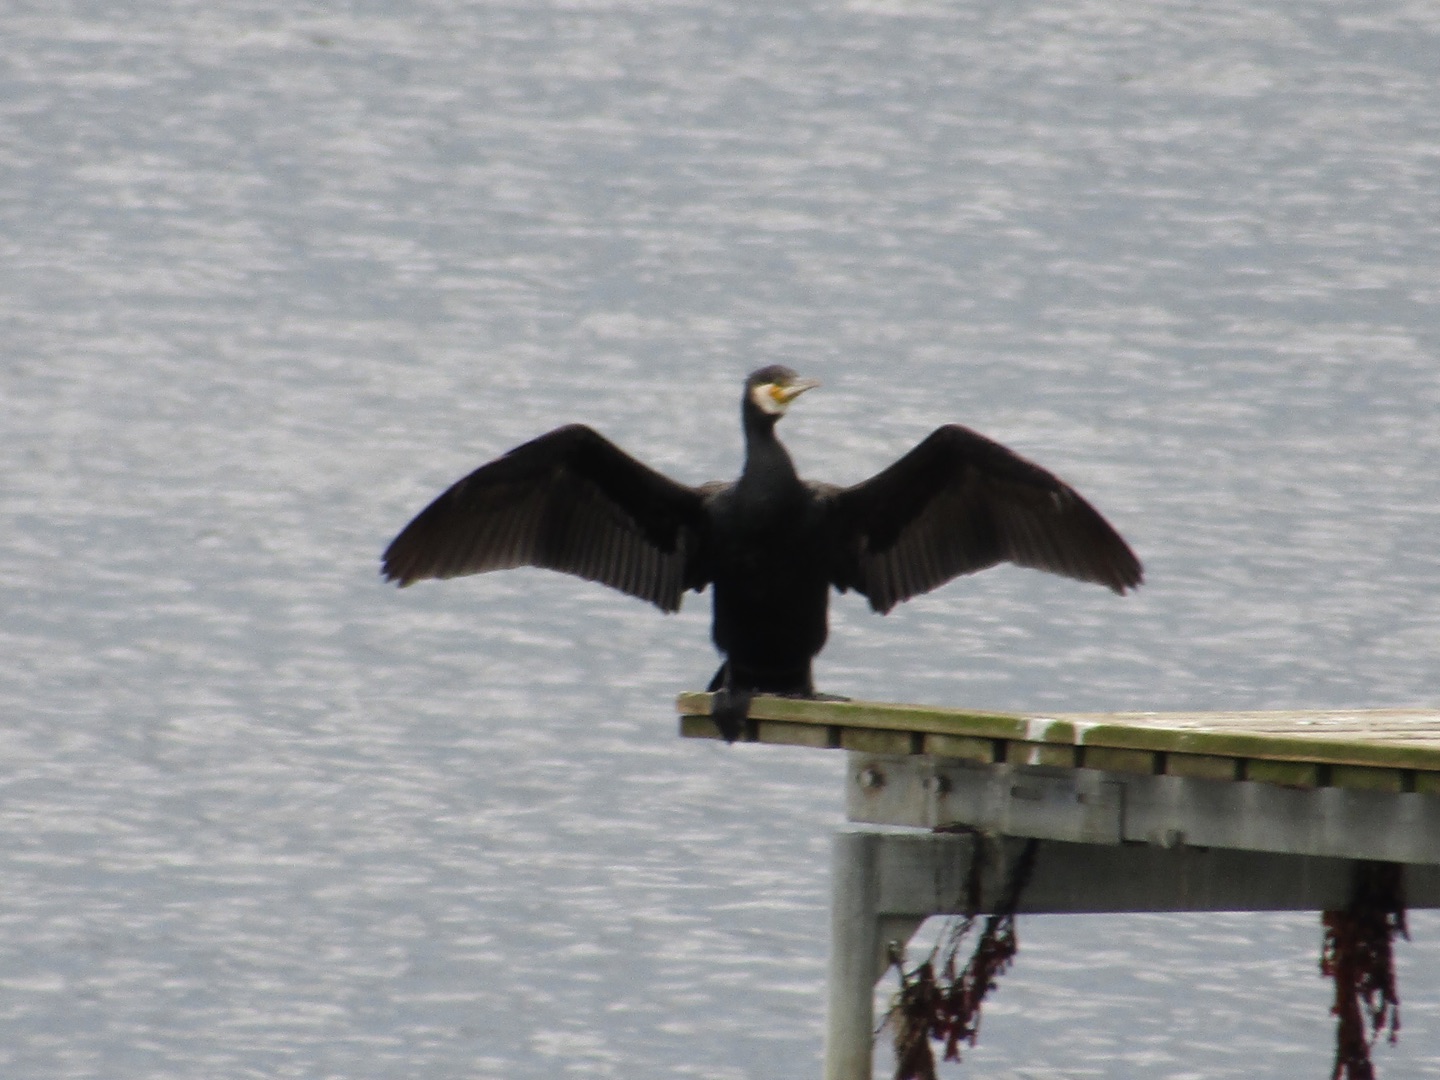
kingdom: Animalia
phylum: Chordata
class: Aves
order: Suliformes
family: Phalacrocoracidae
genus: Phalacrocorax
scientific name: Phalacrocorax carbo
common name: Skarv
